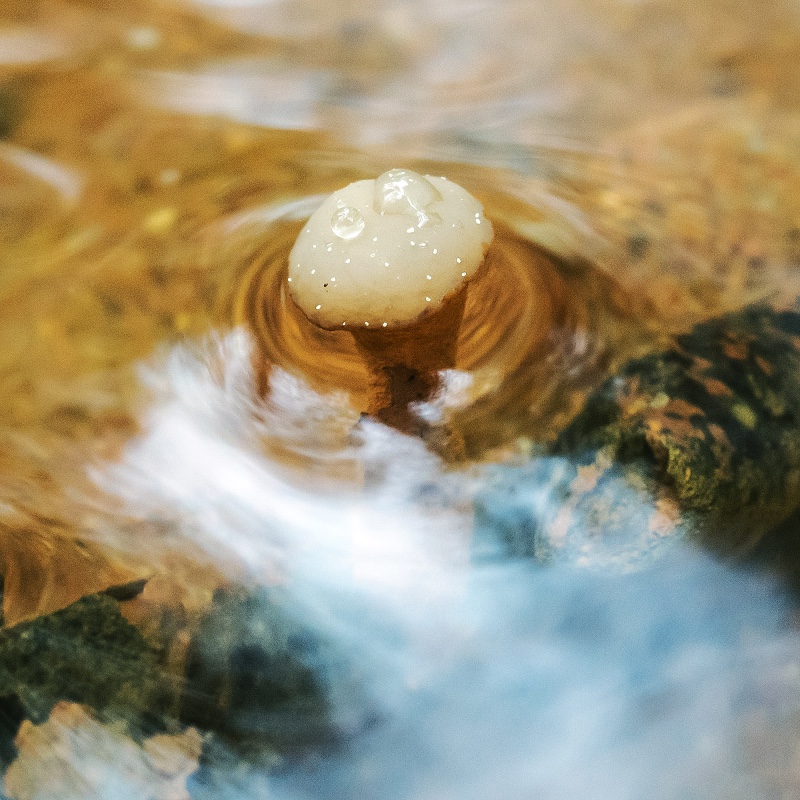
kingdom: Fungi
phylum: Ascomycota
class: Leotiomycetes
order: Helotiales
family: Tricladiaceae
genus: Cudoniella
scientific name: Cudoniella clavus
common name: stor dyndskive
